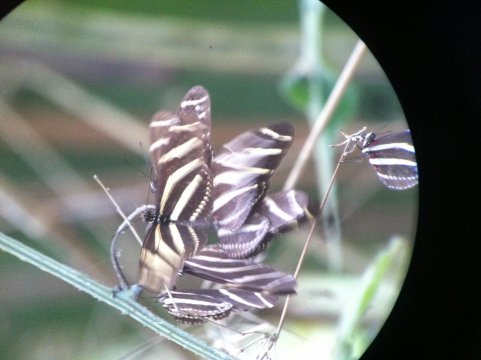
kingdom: Animalia
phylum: Arthropoda
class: Insecta
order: Lepidoptera
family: Nymphalidae
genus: Heliconius
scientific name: Heliconius charithonia
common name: Zebra Longwing
